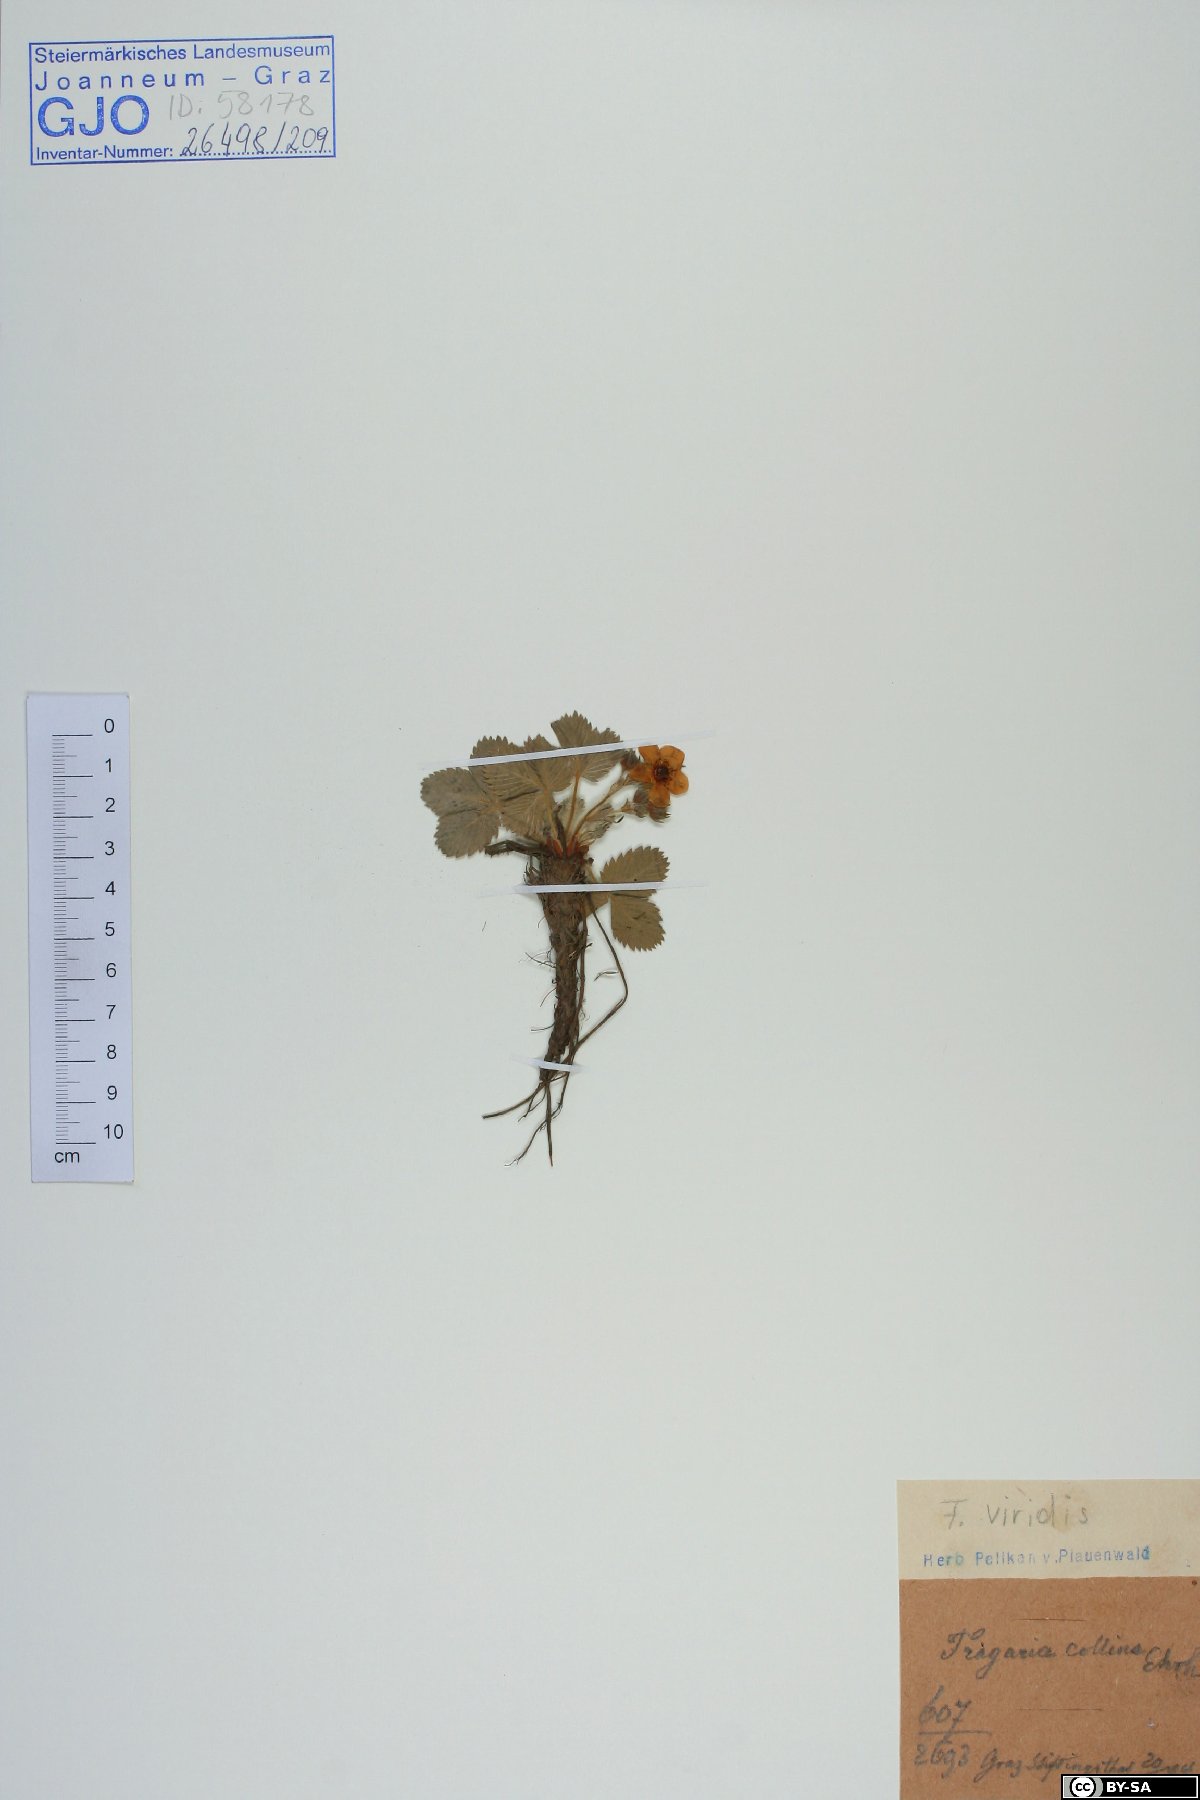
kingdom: Plantae
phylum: Tracheophyta
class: Magnoliopsida
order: Rosales
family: Rosaceae
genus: Fragaria
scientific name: Fragaria viridis
